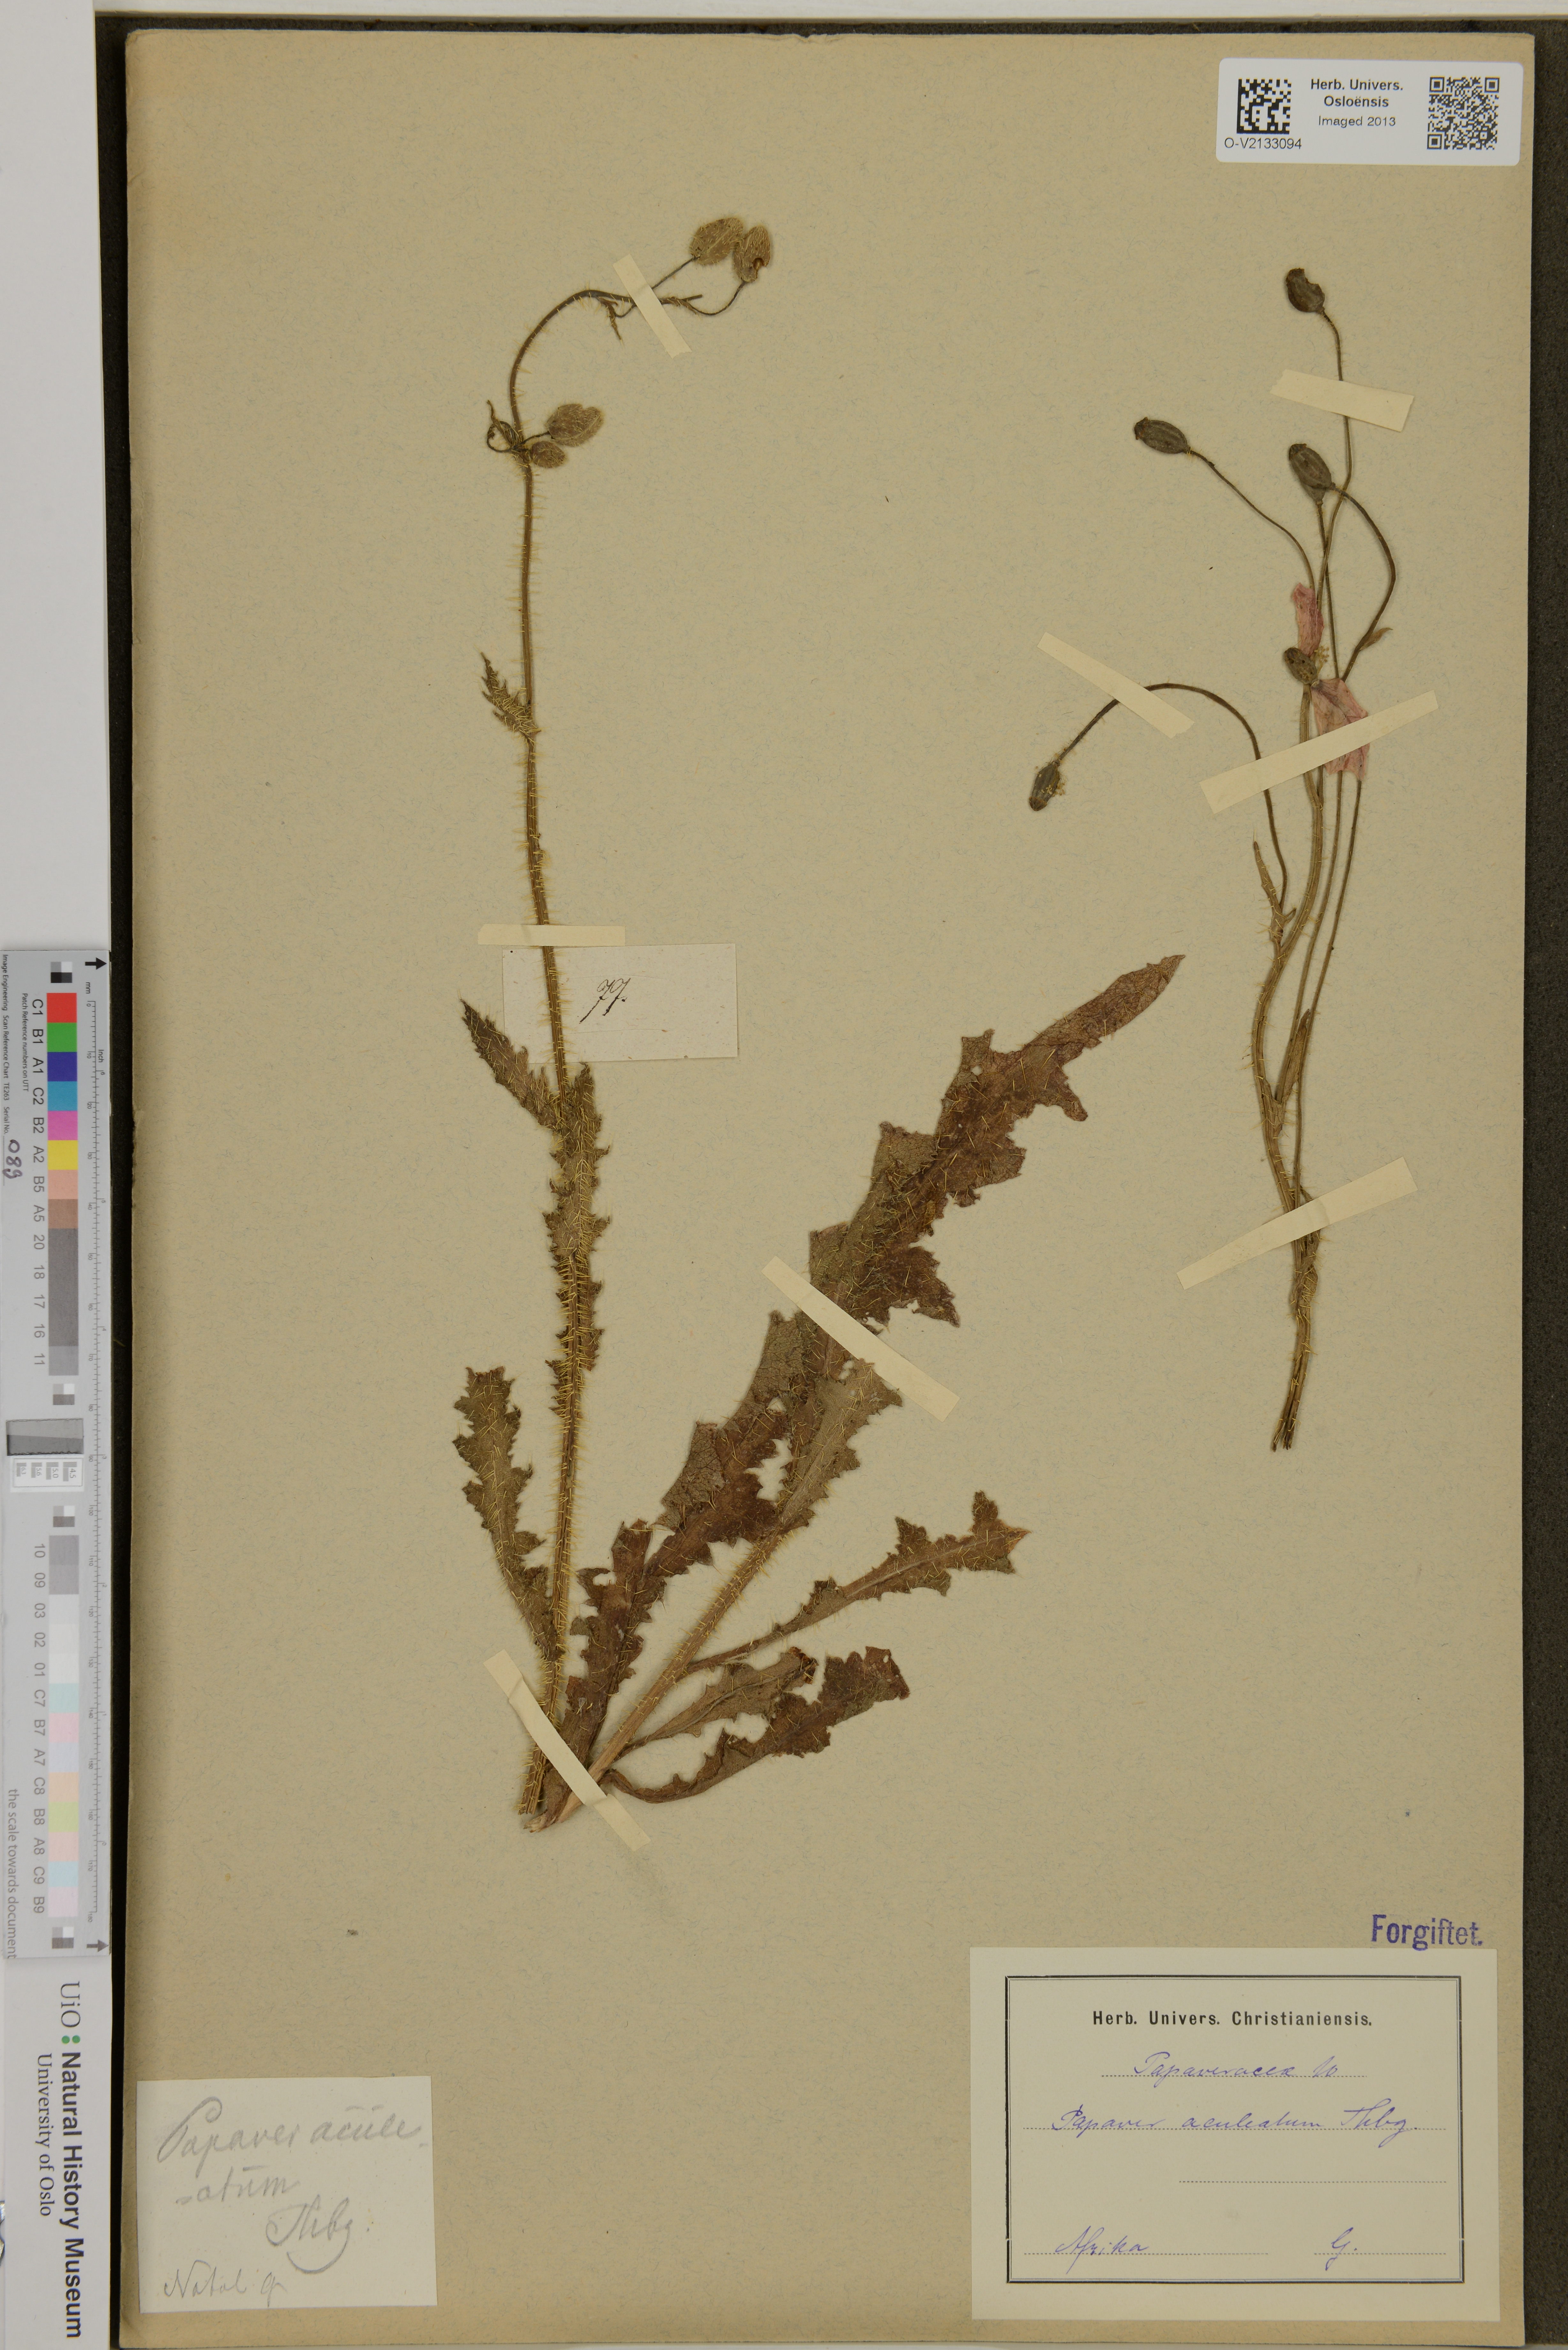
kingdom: Plantae
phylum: Tracheophyta
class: Magnoliopsida
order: Ranunculales
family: Papaveraceae
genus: Papaver
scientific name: Papaver aculeatum
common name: Bristle poppy
